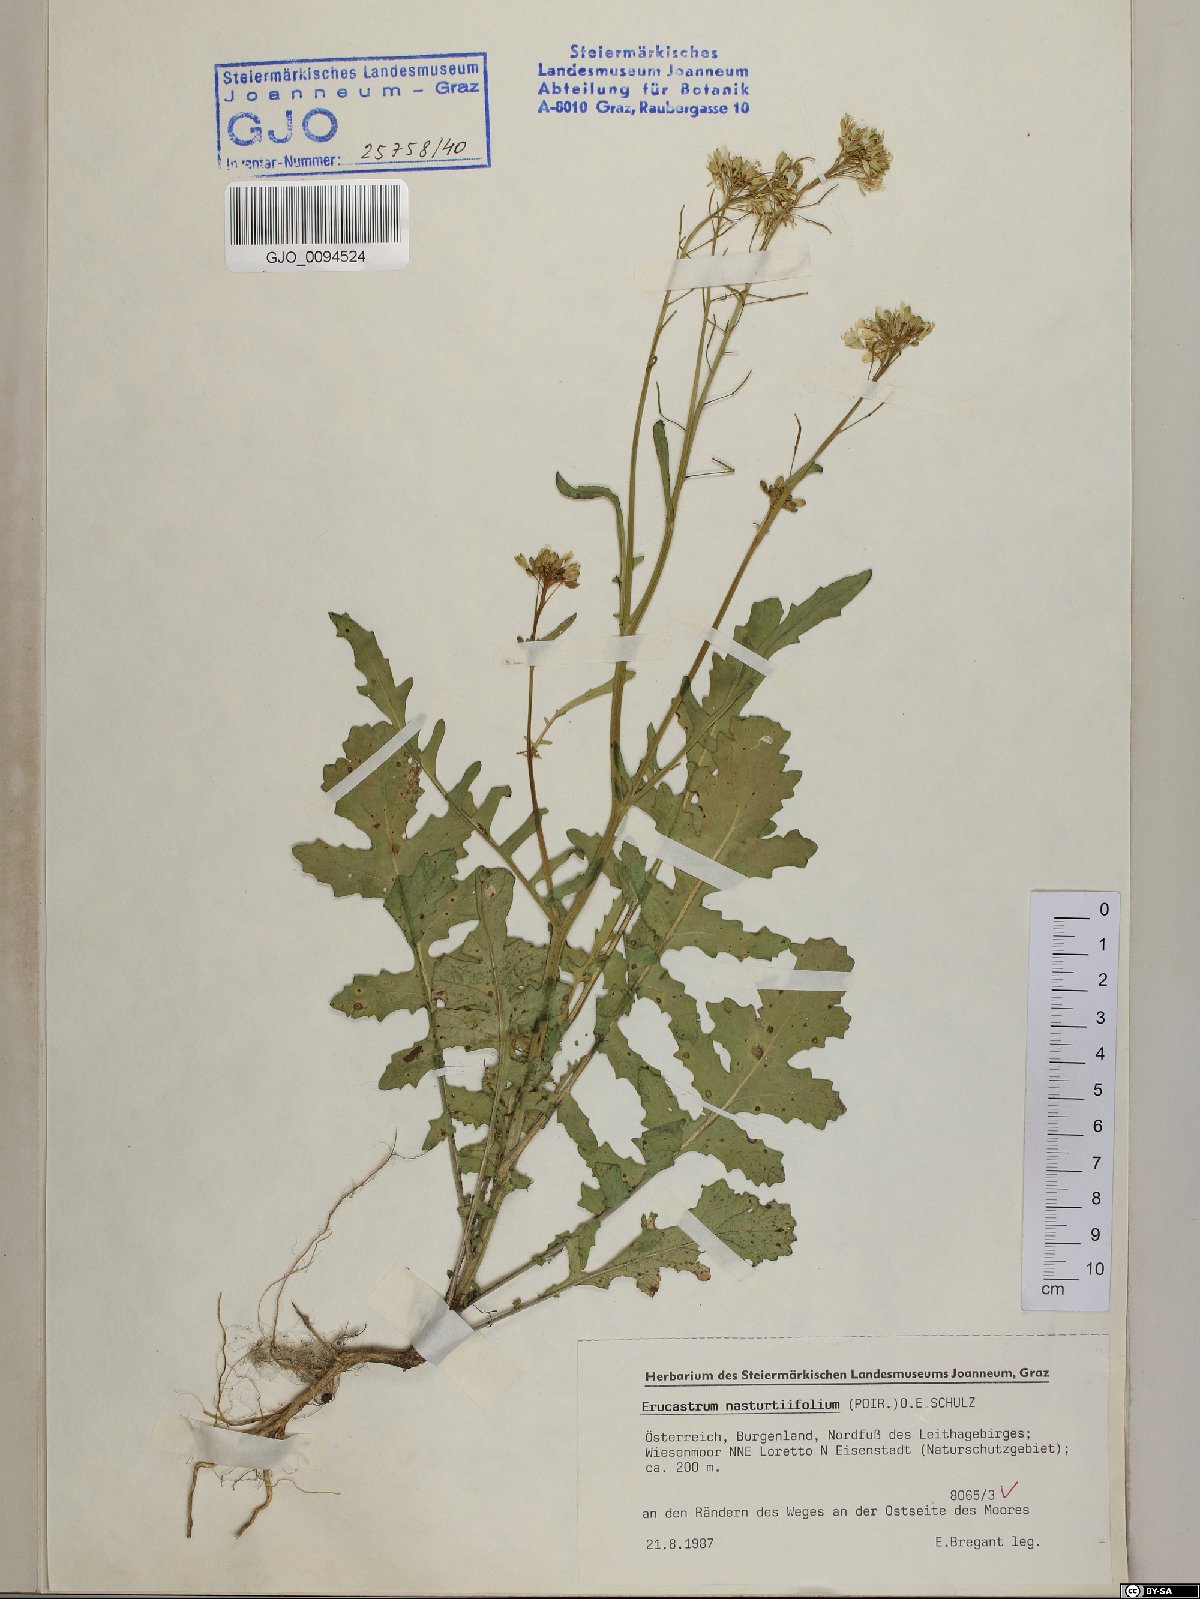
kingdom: Plantae
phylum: Tracheophyta
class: Magnoliopsida
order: Brassicales
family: Brassicaceae
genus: Erucastrum
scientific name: Erucastrum nasturtiifolium
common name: Watercress-leaf rocket
